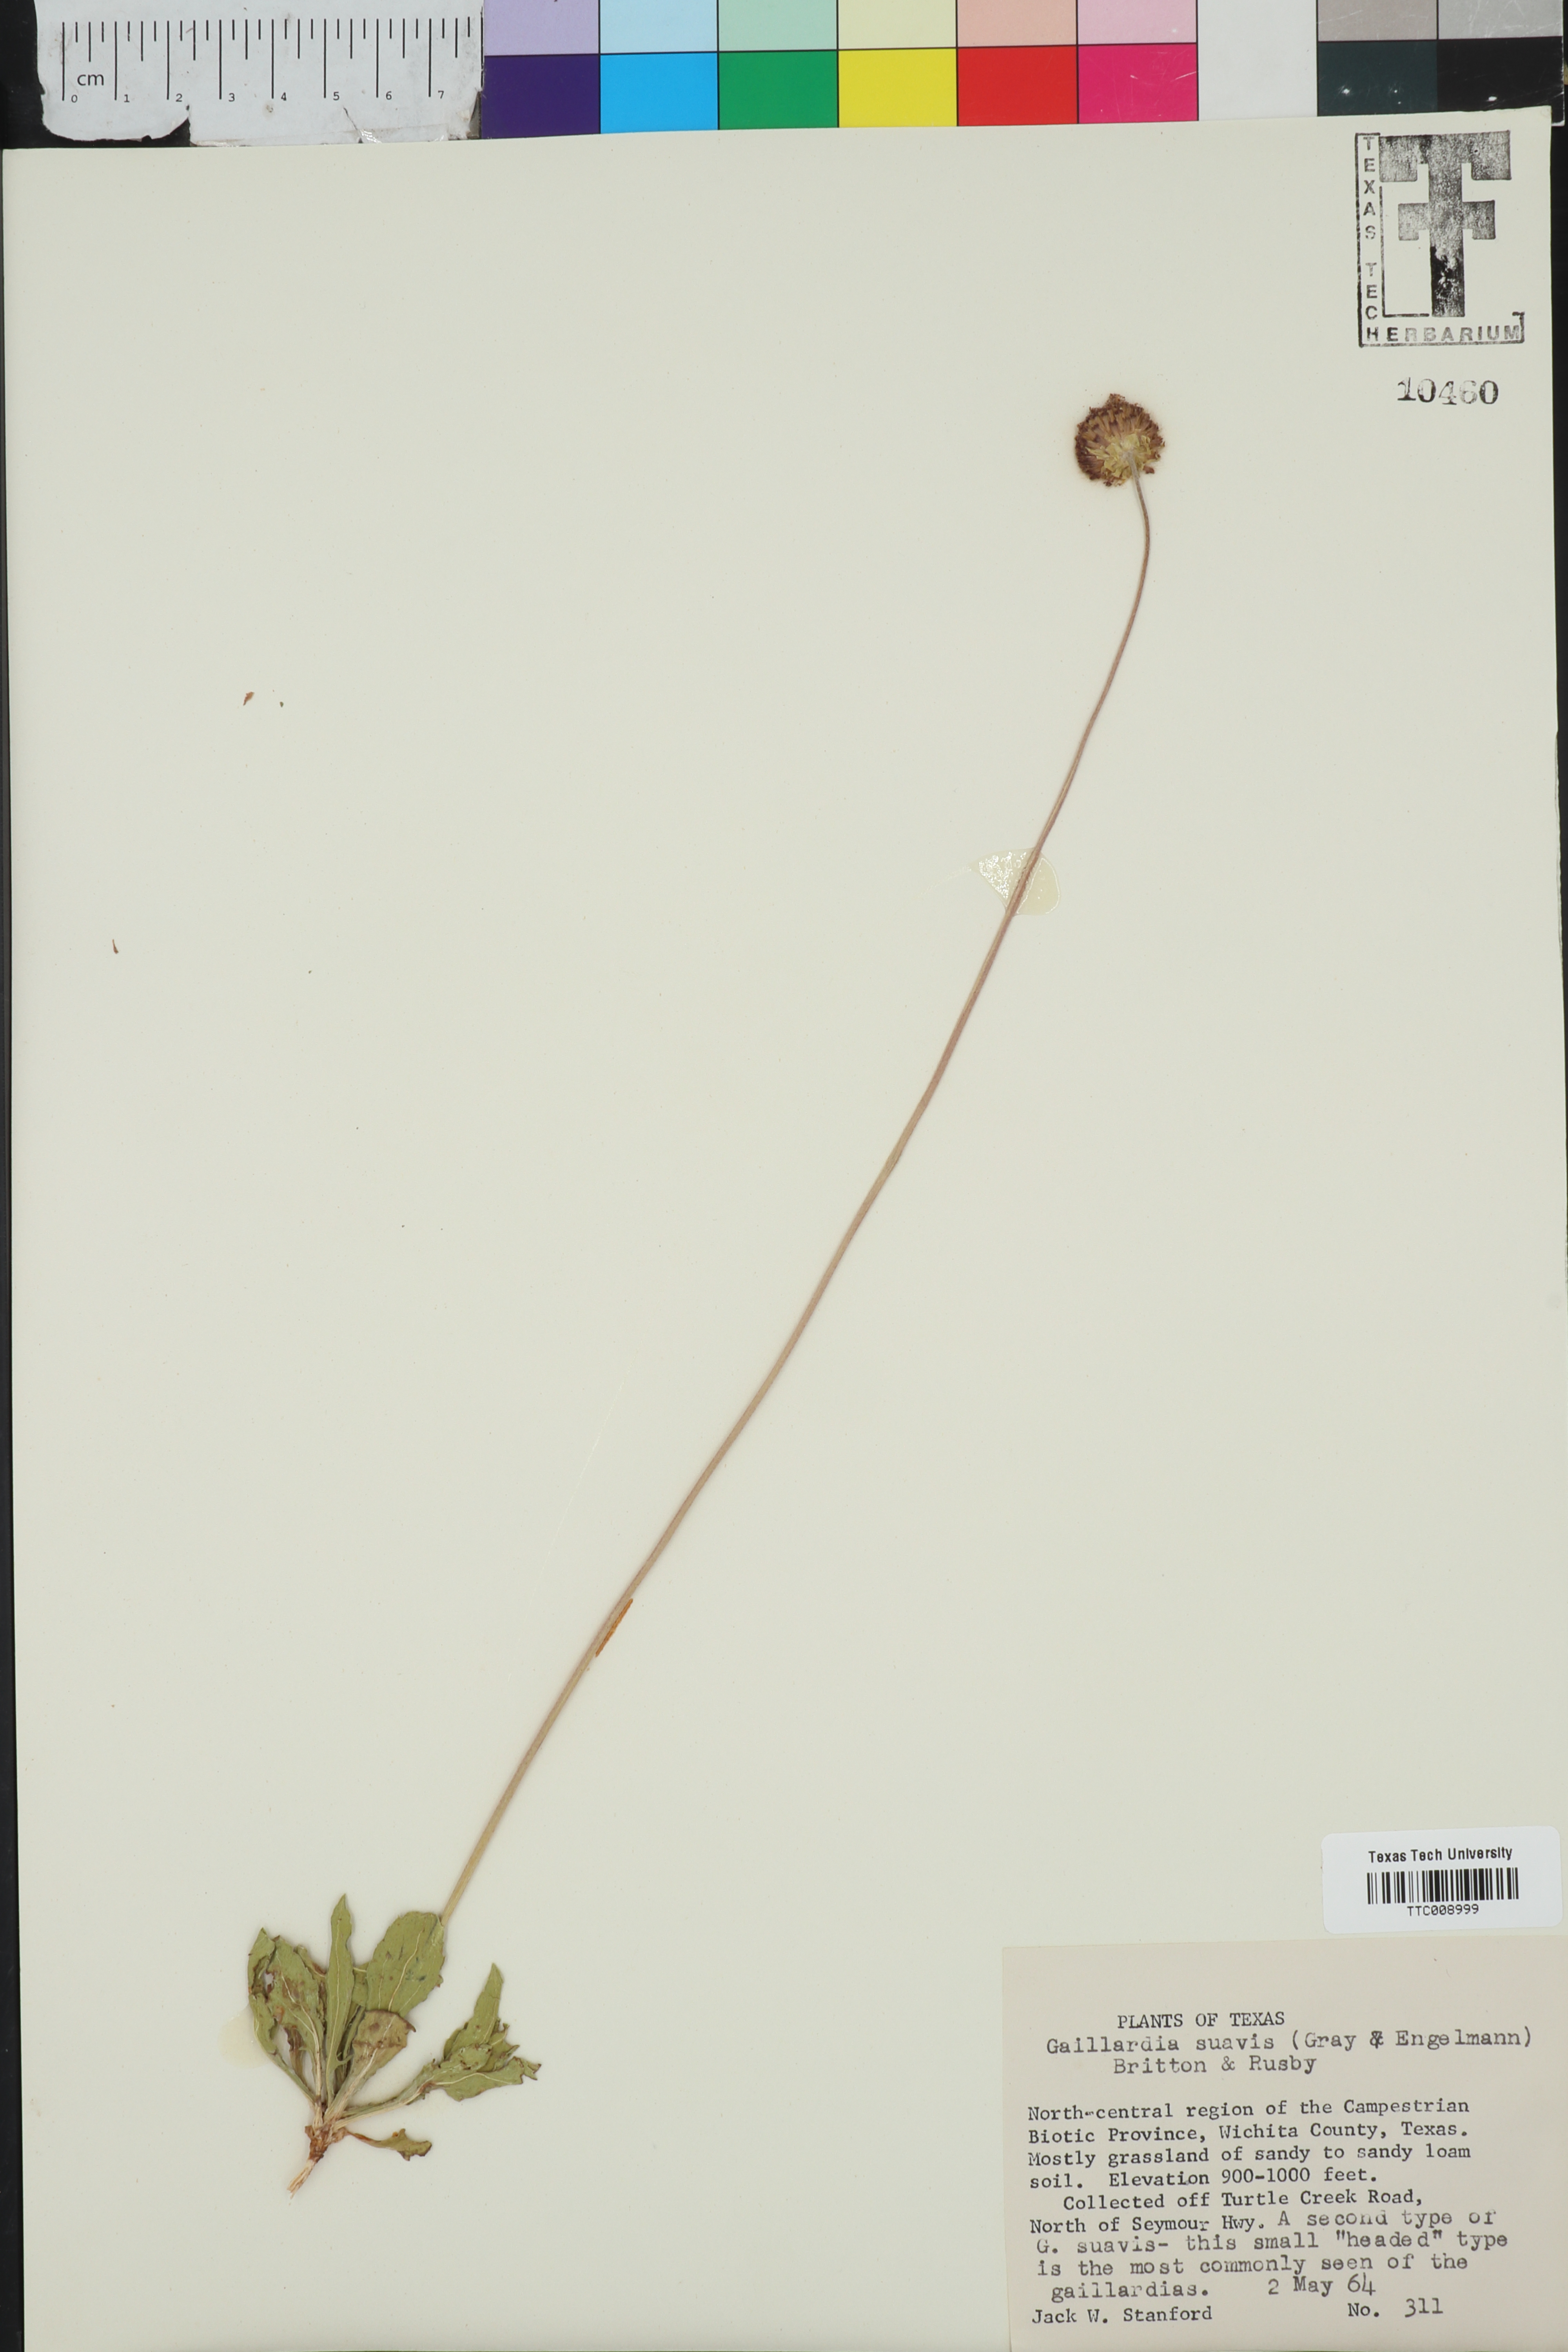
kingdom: Plantae
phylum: Tracheophyta
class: Magnoliopsida
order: Asterales
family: Asteraceae
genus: Gaillardia
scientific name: Gaillardia suavis
